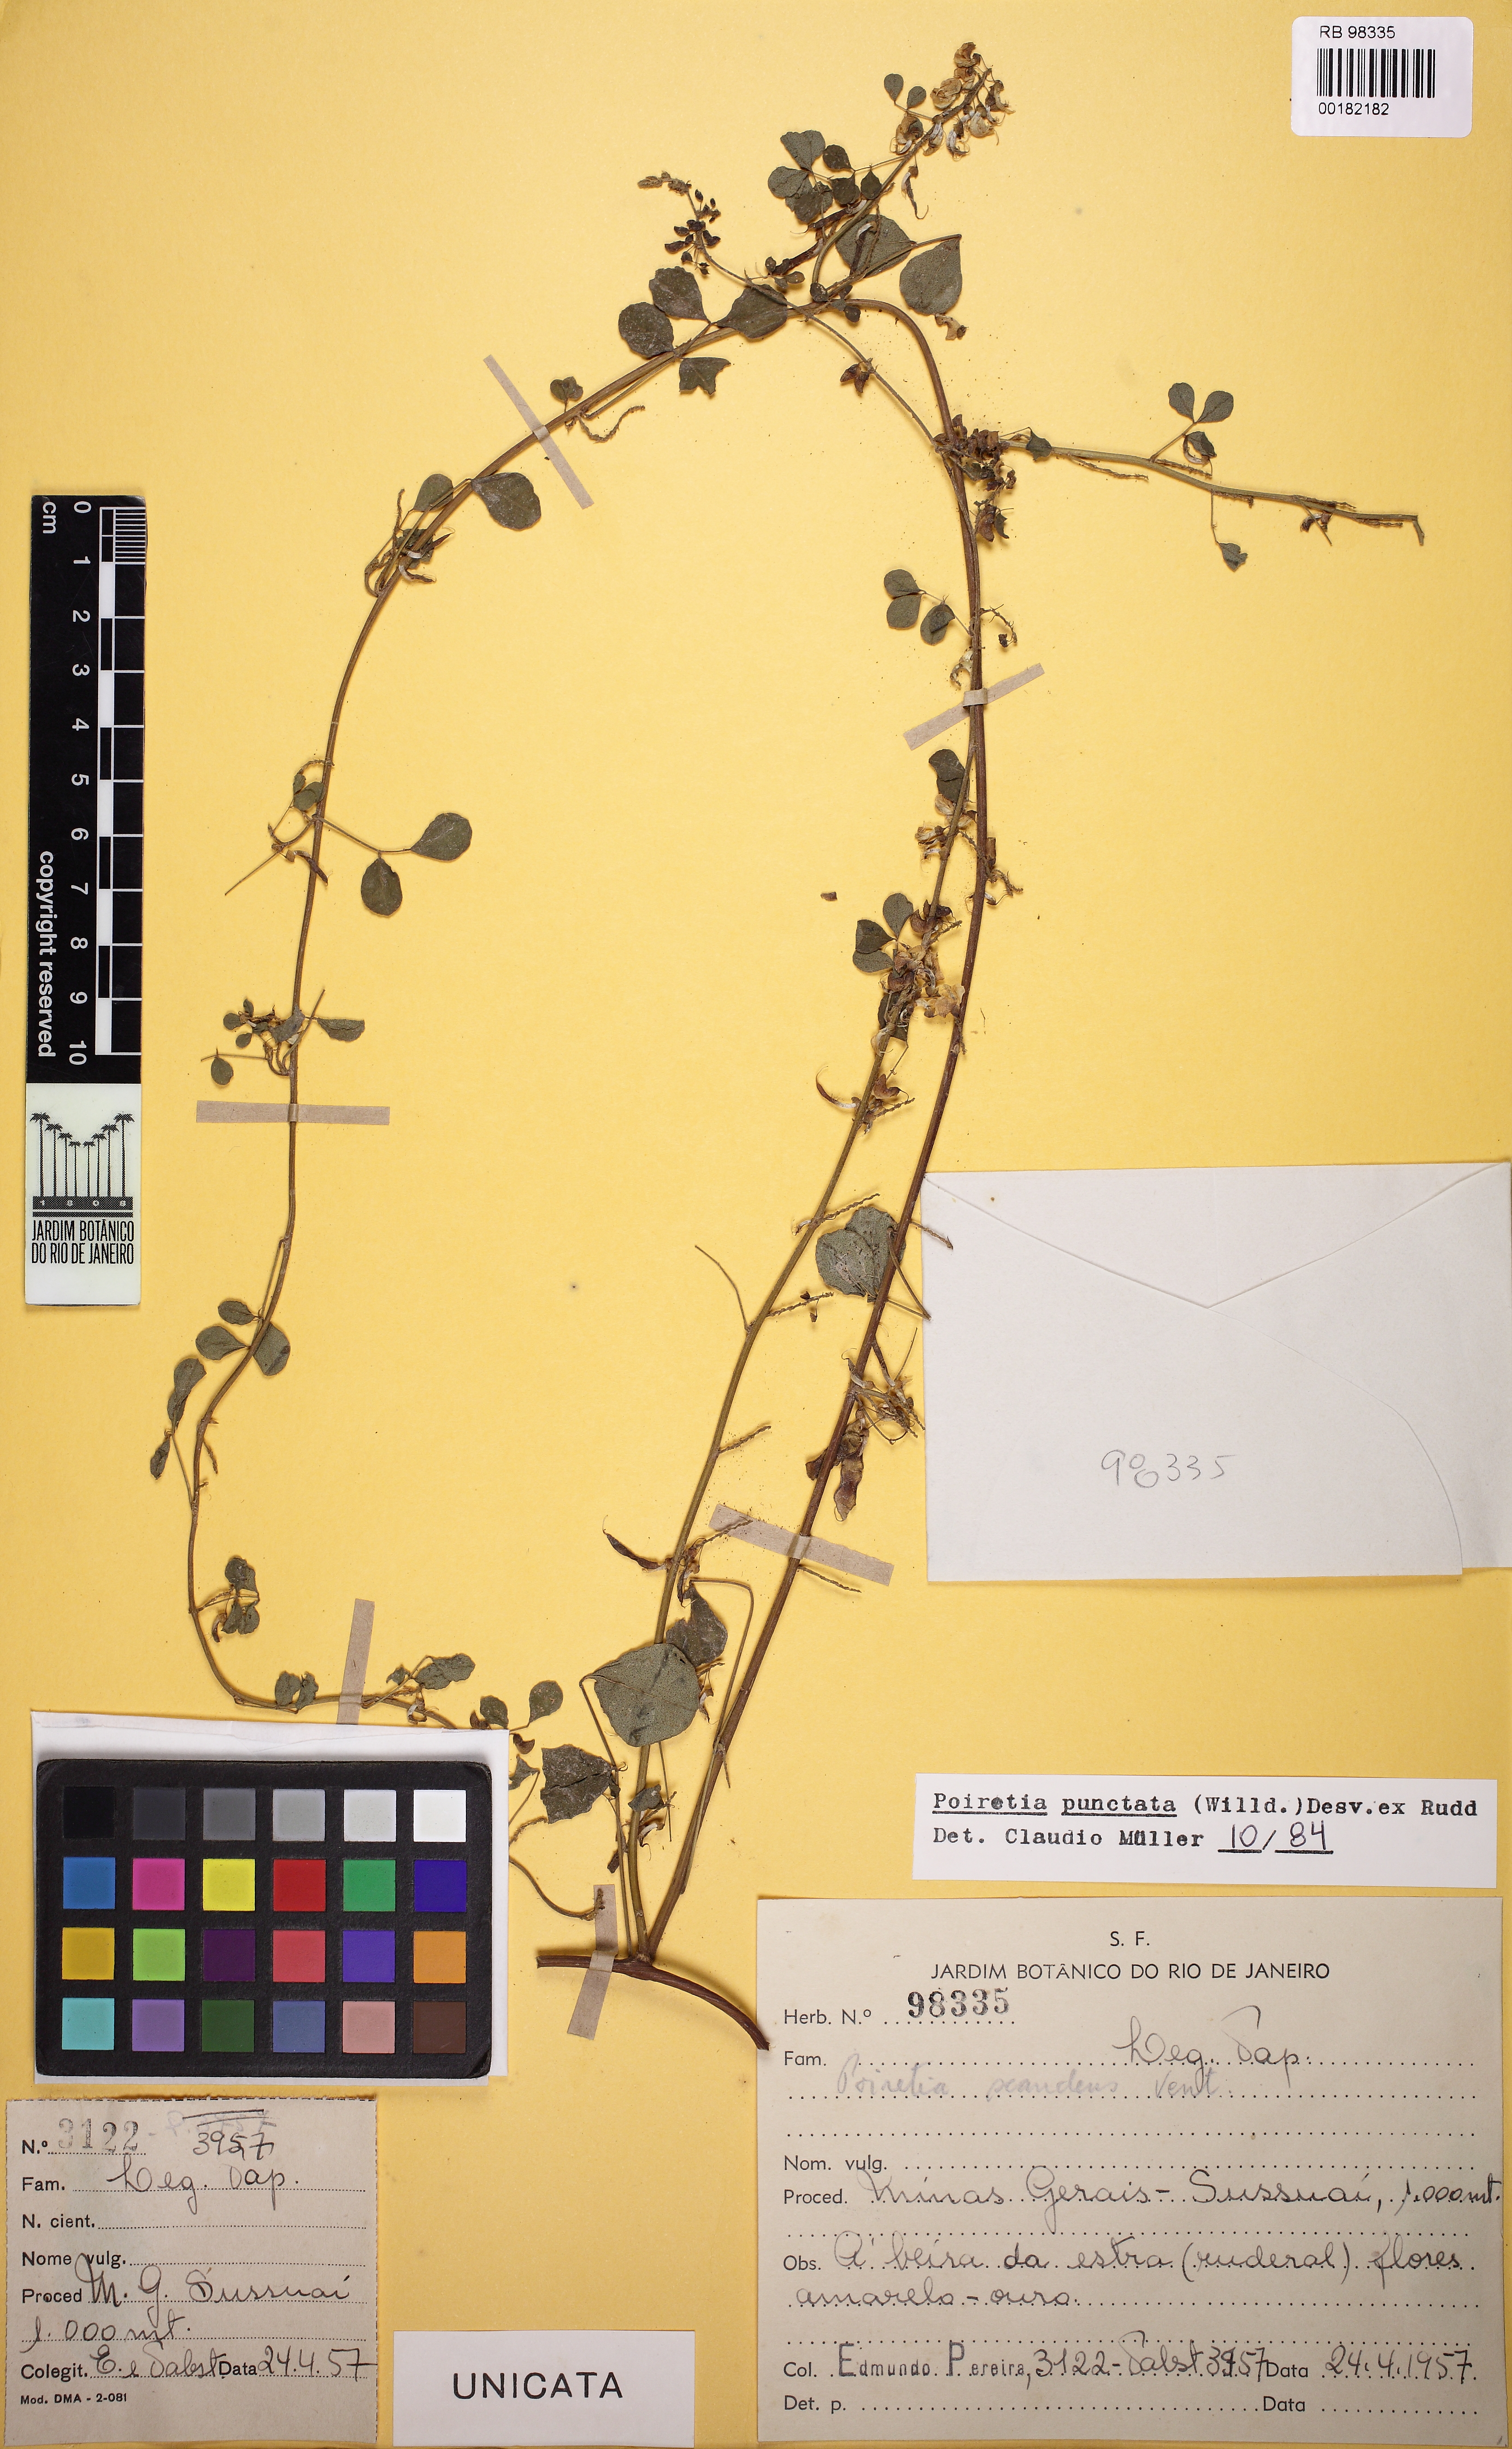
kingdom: Plantae
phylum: Tracheophyta
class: Magnoliopsida
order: Fabales
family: Fabaceae
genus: Poiretia
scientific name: Poiretia punctata
